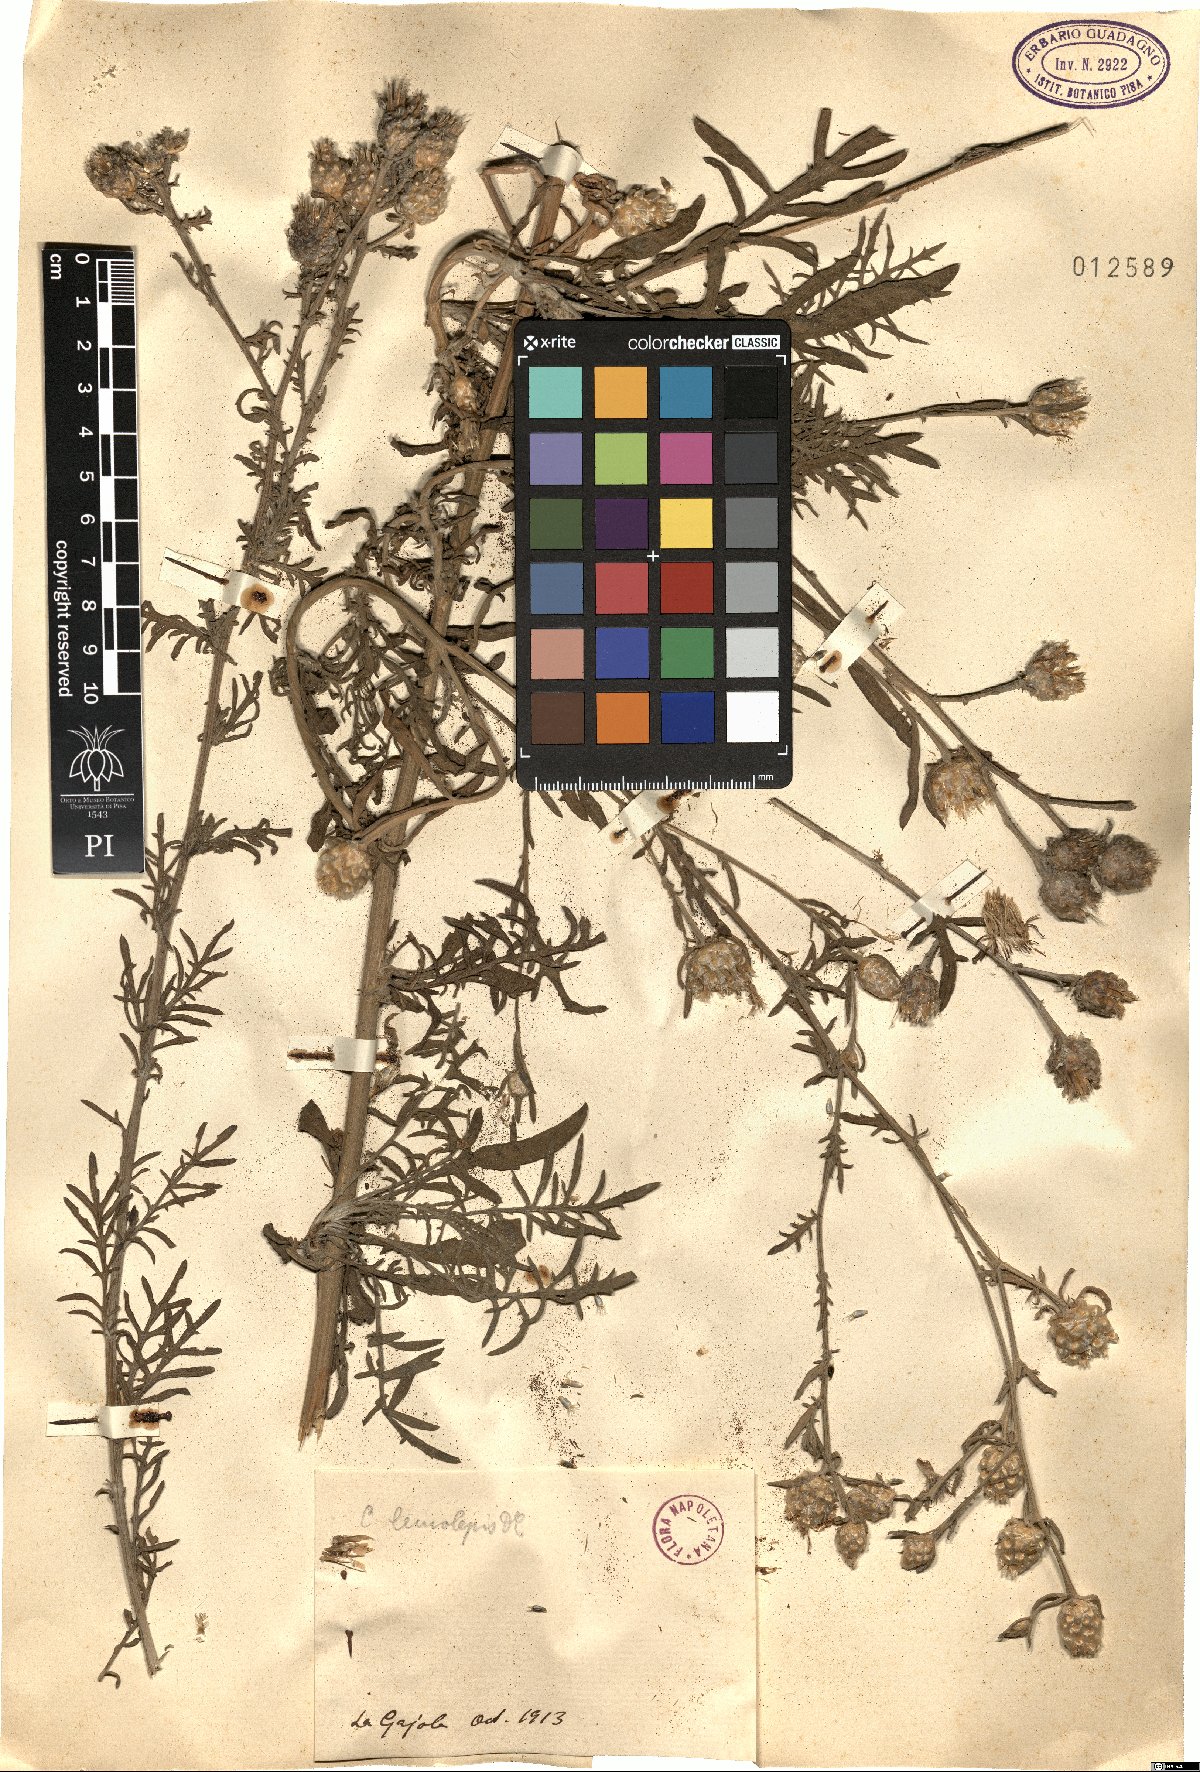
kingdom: Plantae
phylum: Tracheophyta
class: Magnoliopsida
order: Asterales
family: Asteraceae
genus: Centaurea
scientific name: Centaurea
